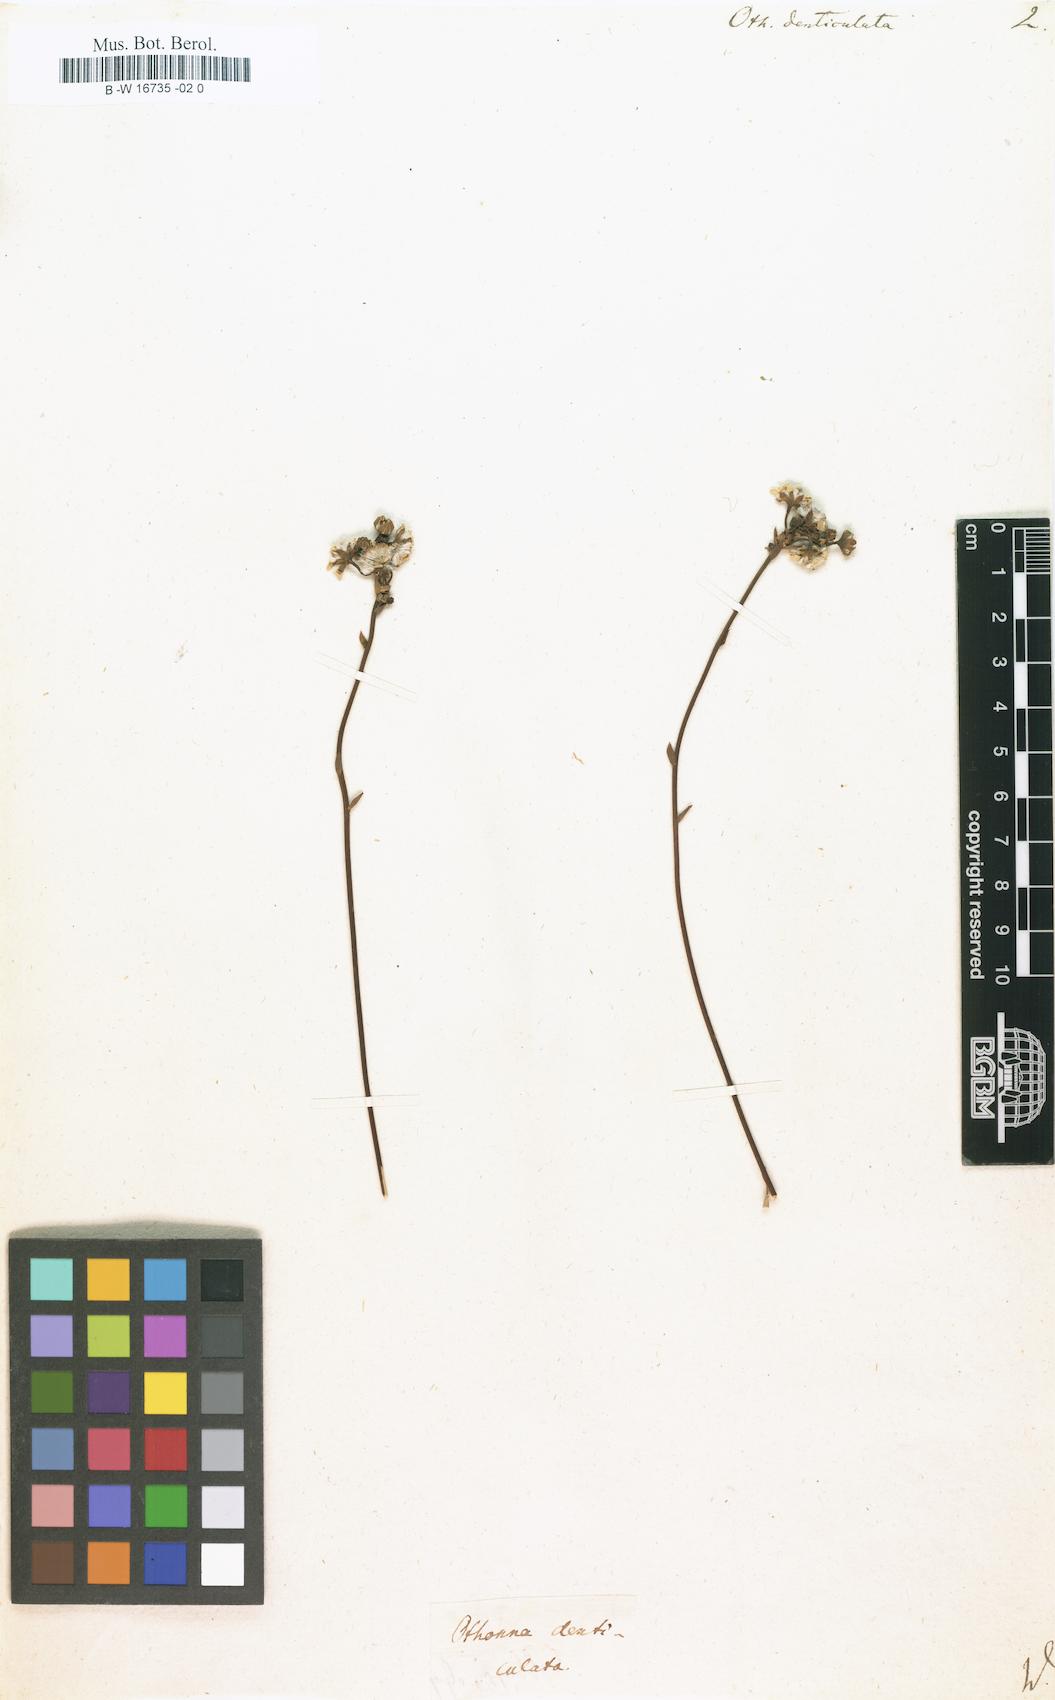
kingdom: Plantae
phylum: Tracheophyta
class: Magnoliopsida
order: Asterales
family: Asteraceae
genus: Othonna
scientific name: Othonna denticulata
